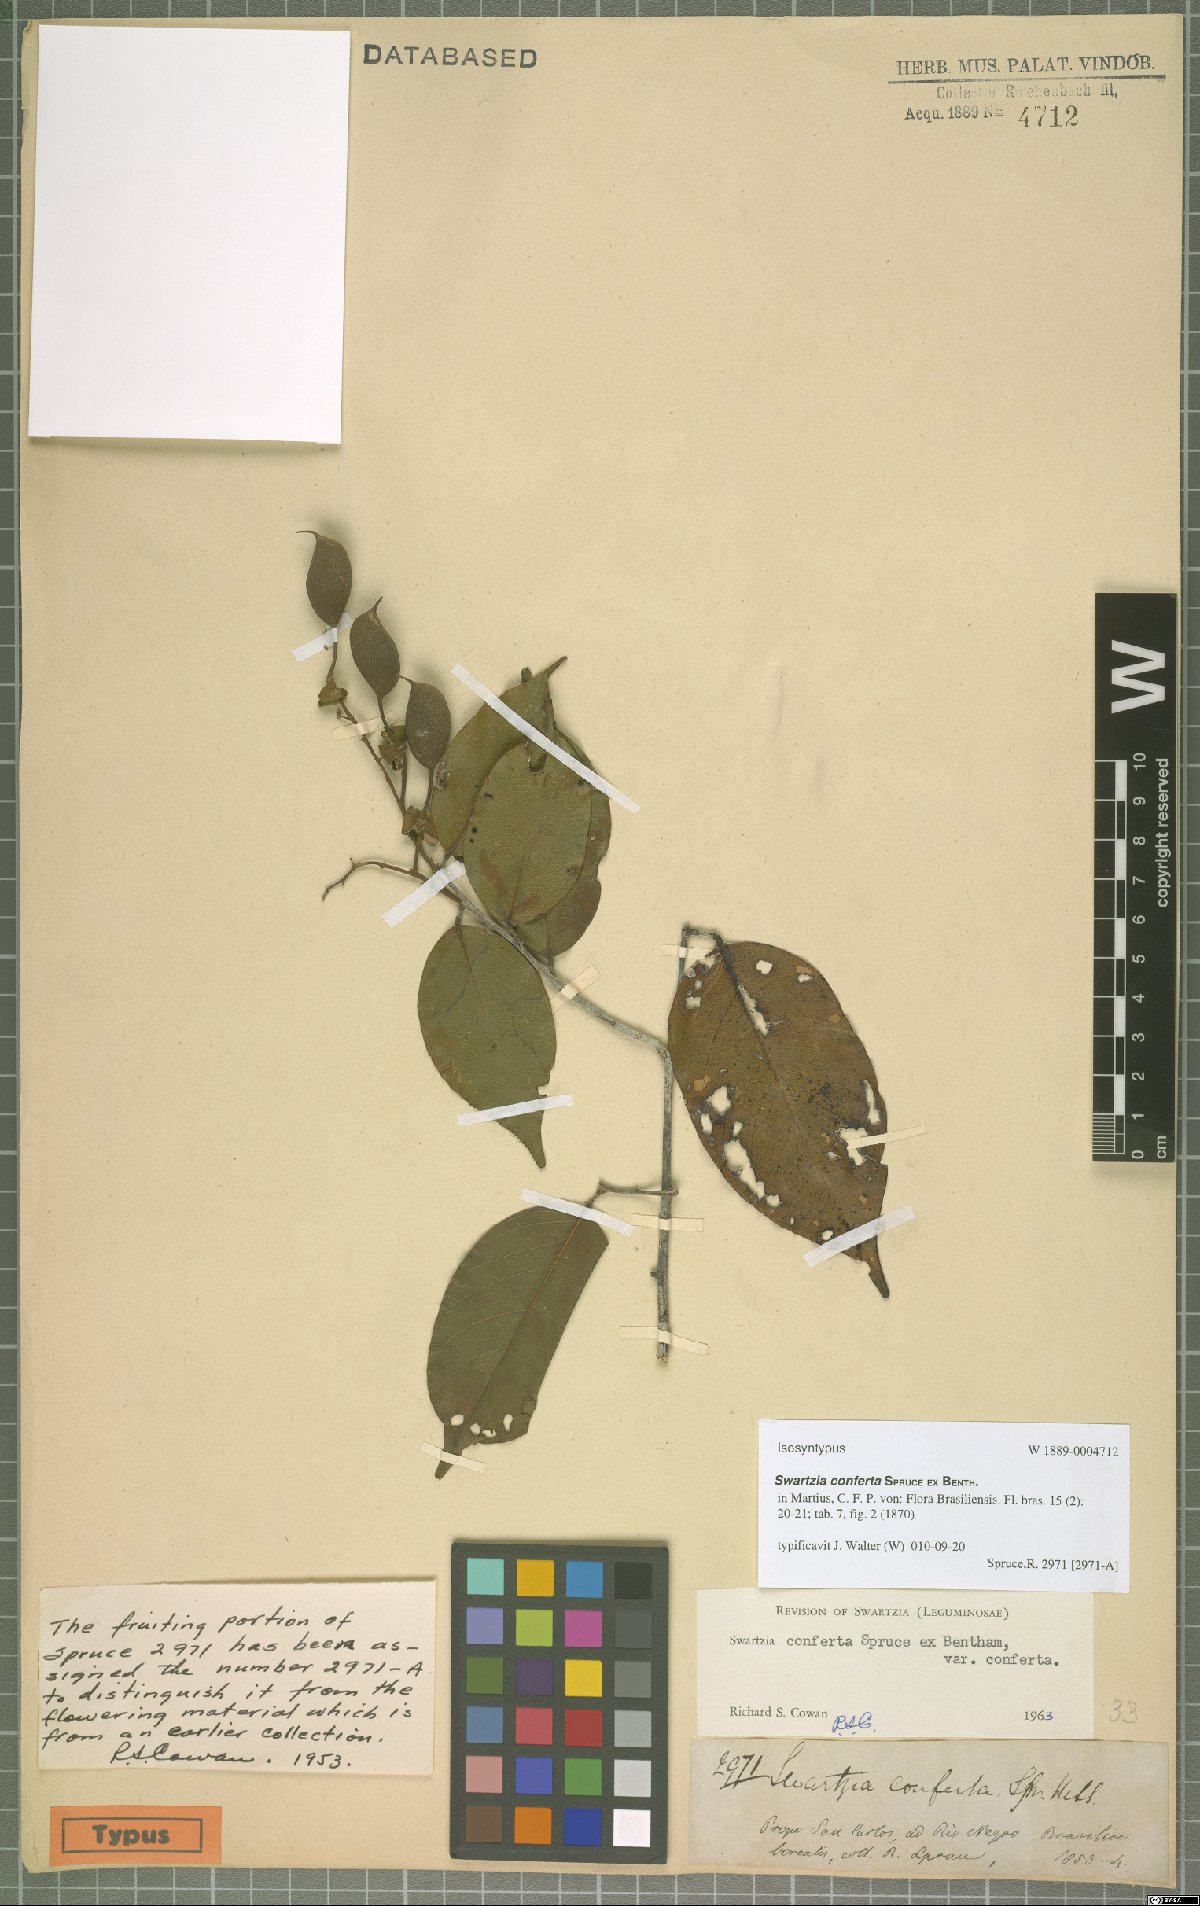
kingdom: Plantae
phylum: Tracheophyta
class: Magnoliopsida
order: Fabales
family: Fabaceae
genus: Swartzia
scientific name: Swartzia conferta
